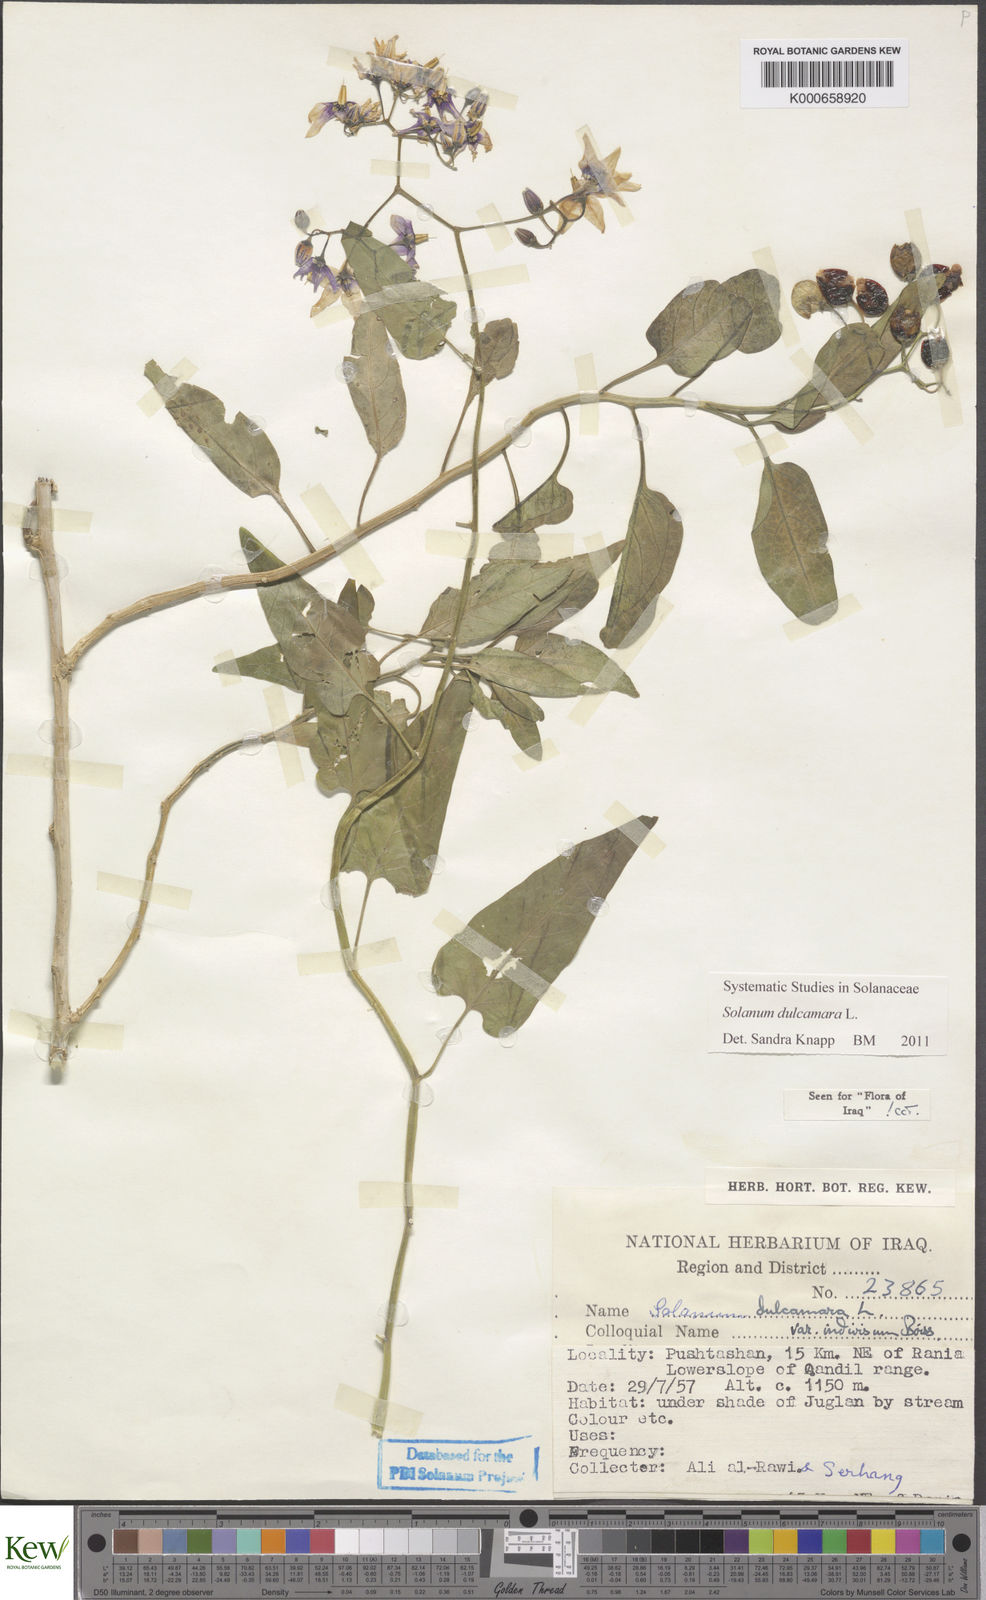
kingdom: Plantae
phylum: Tracheophyta
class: Magnoliopsida
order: Solanales
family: Solanaceae
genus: Solanum
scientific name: Solanum dulcamara
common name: Climbing nightshade
